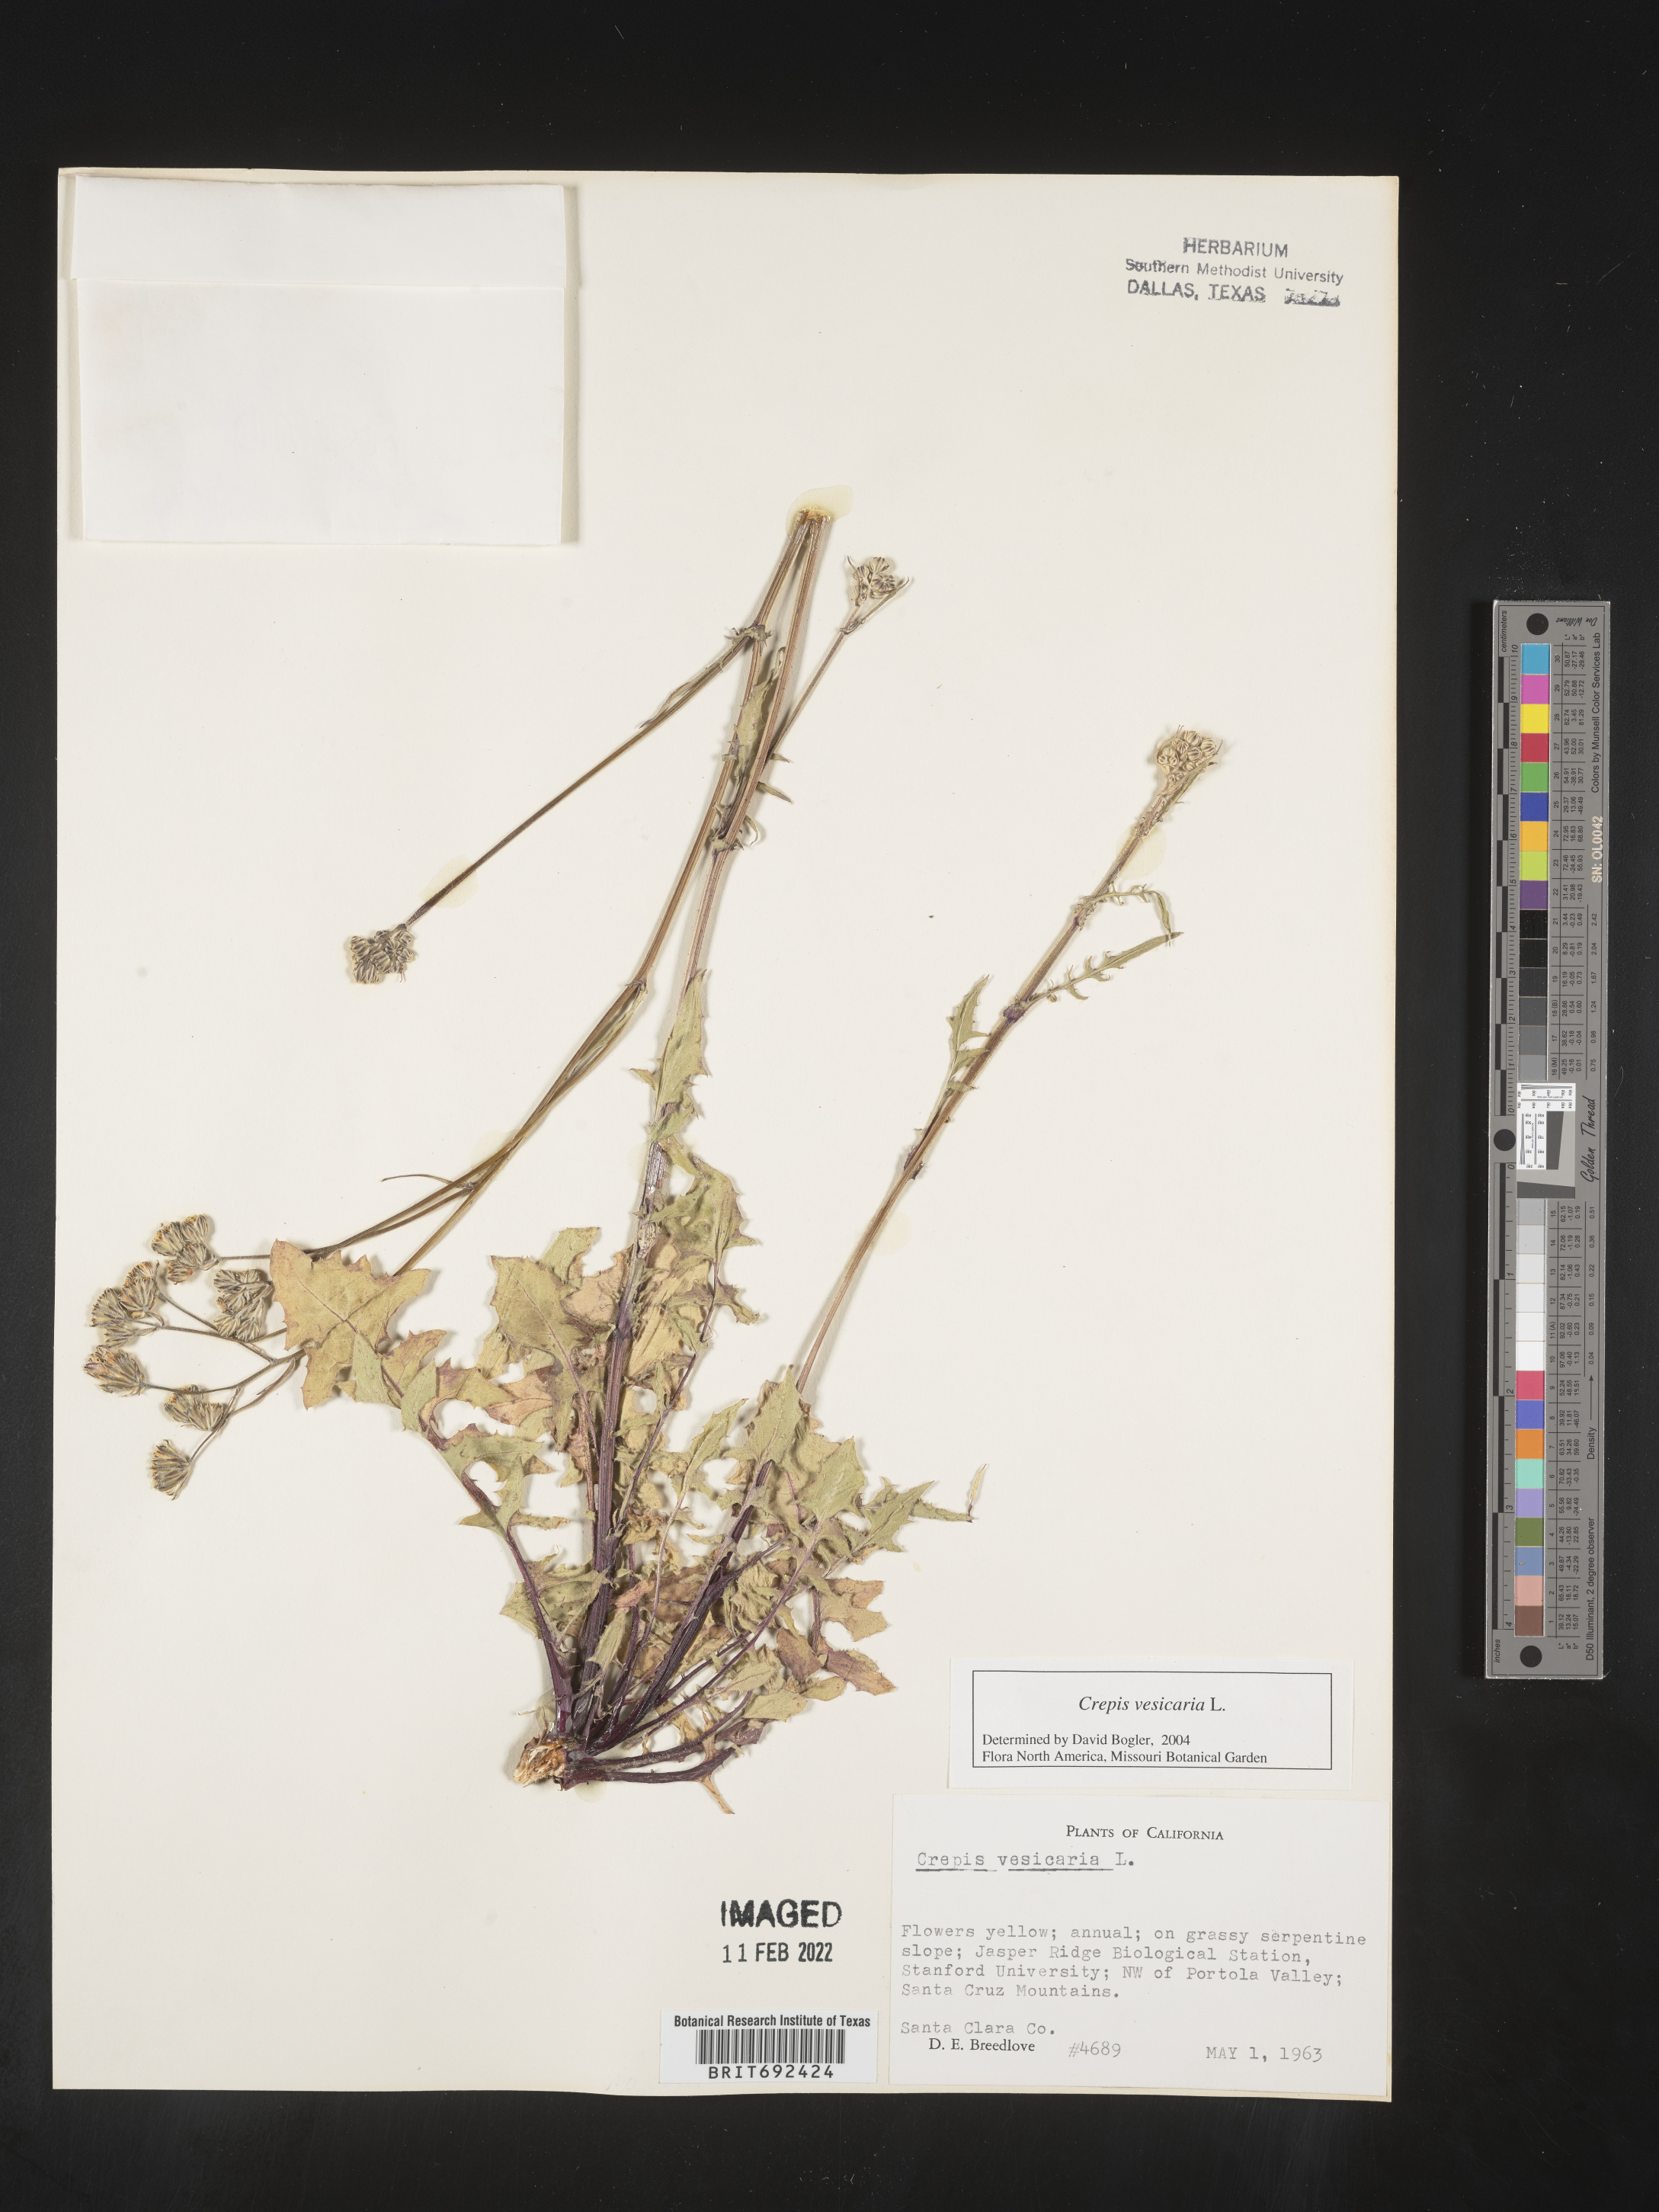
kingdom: Plantae
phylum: Tracheophyta
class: Magnoliopsida
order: Asterales
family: Asteraceae
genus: Crepis
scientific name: Crepis
